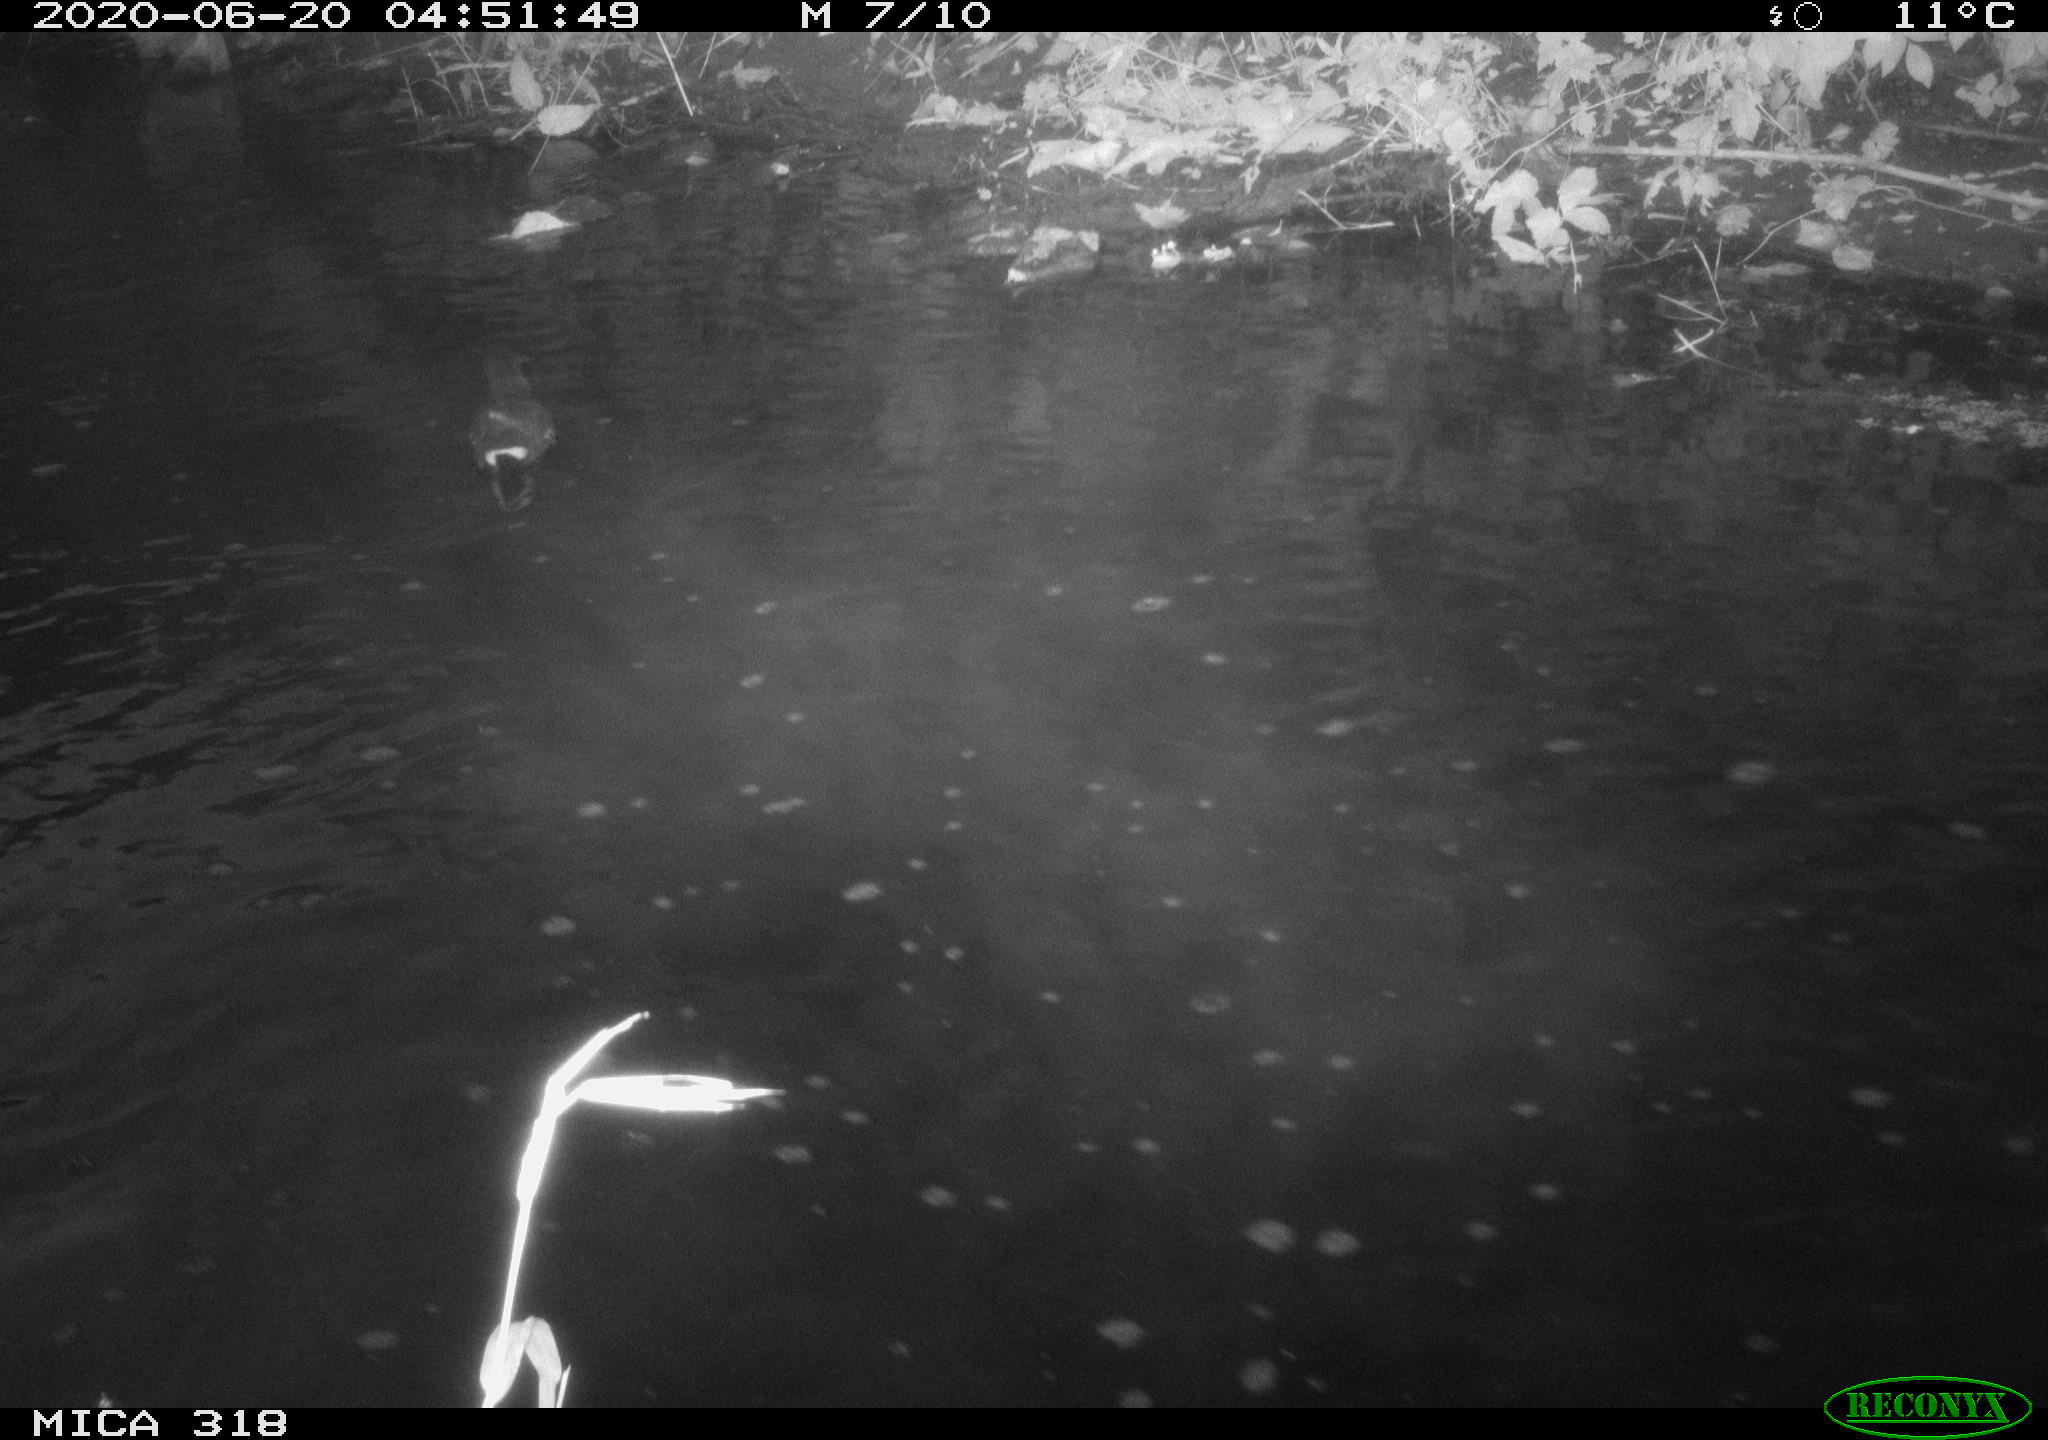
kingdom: Animalia
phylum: Chordata
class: Aves
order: Gruiformes
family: Rallidae
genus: Gallinula
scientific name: Gallinula chloropus
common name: Common moorhen
